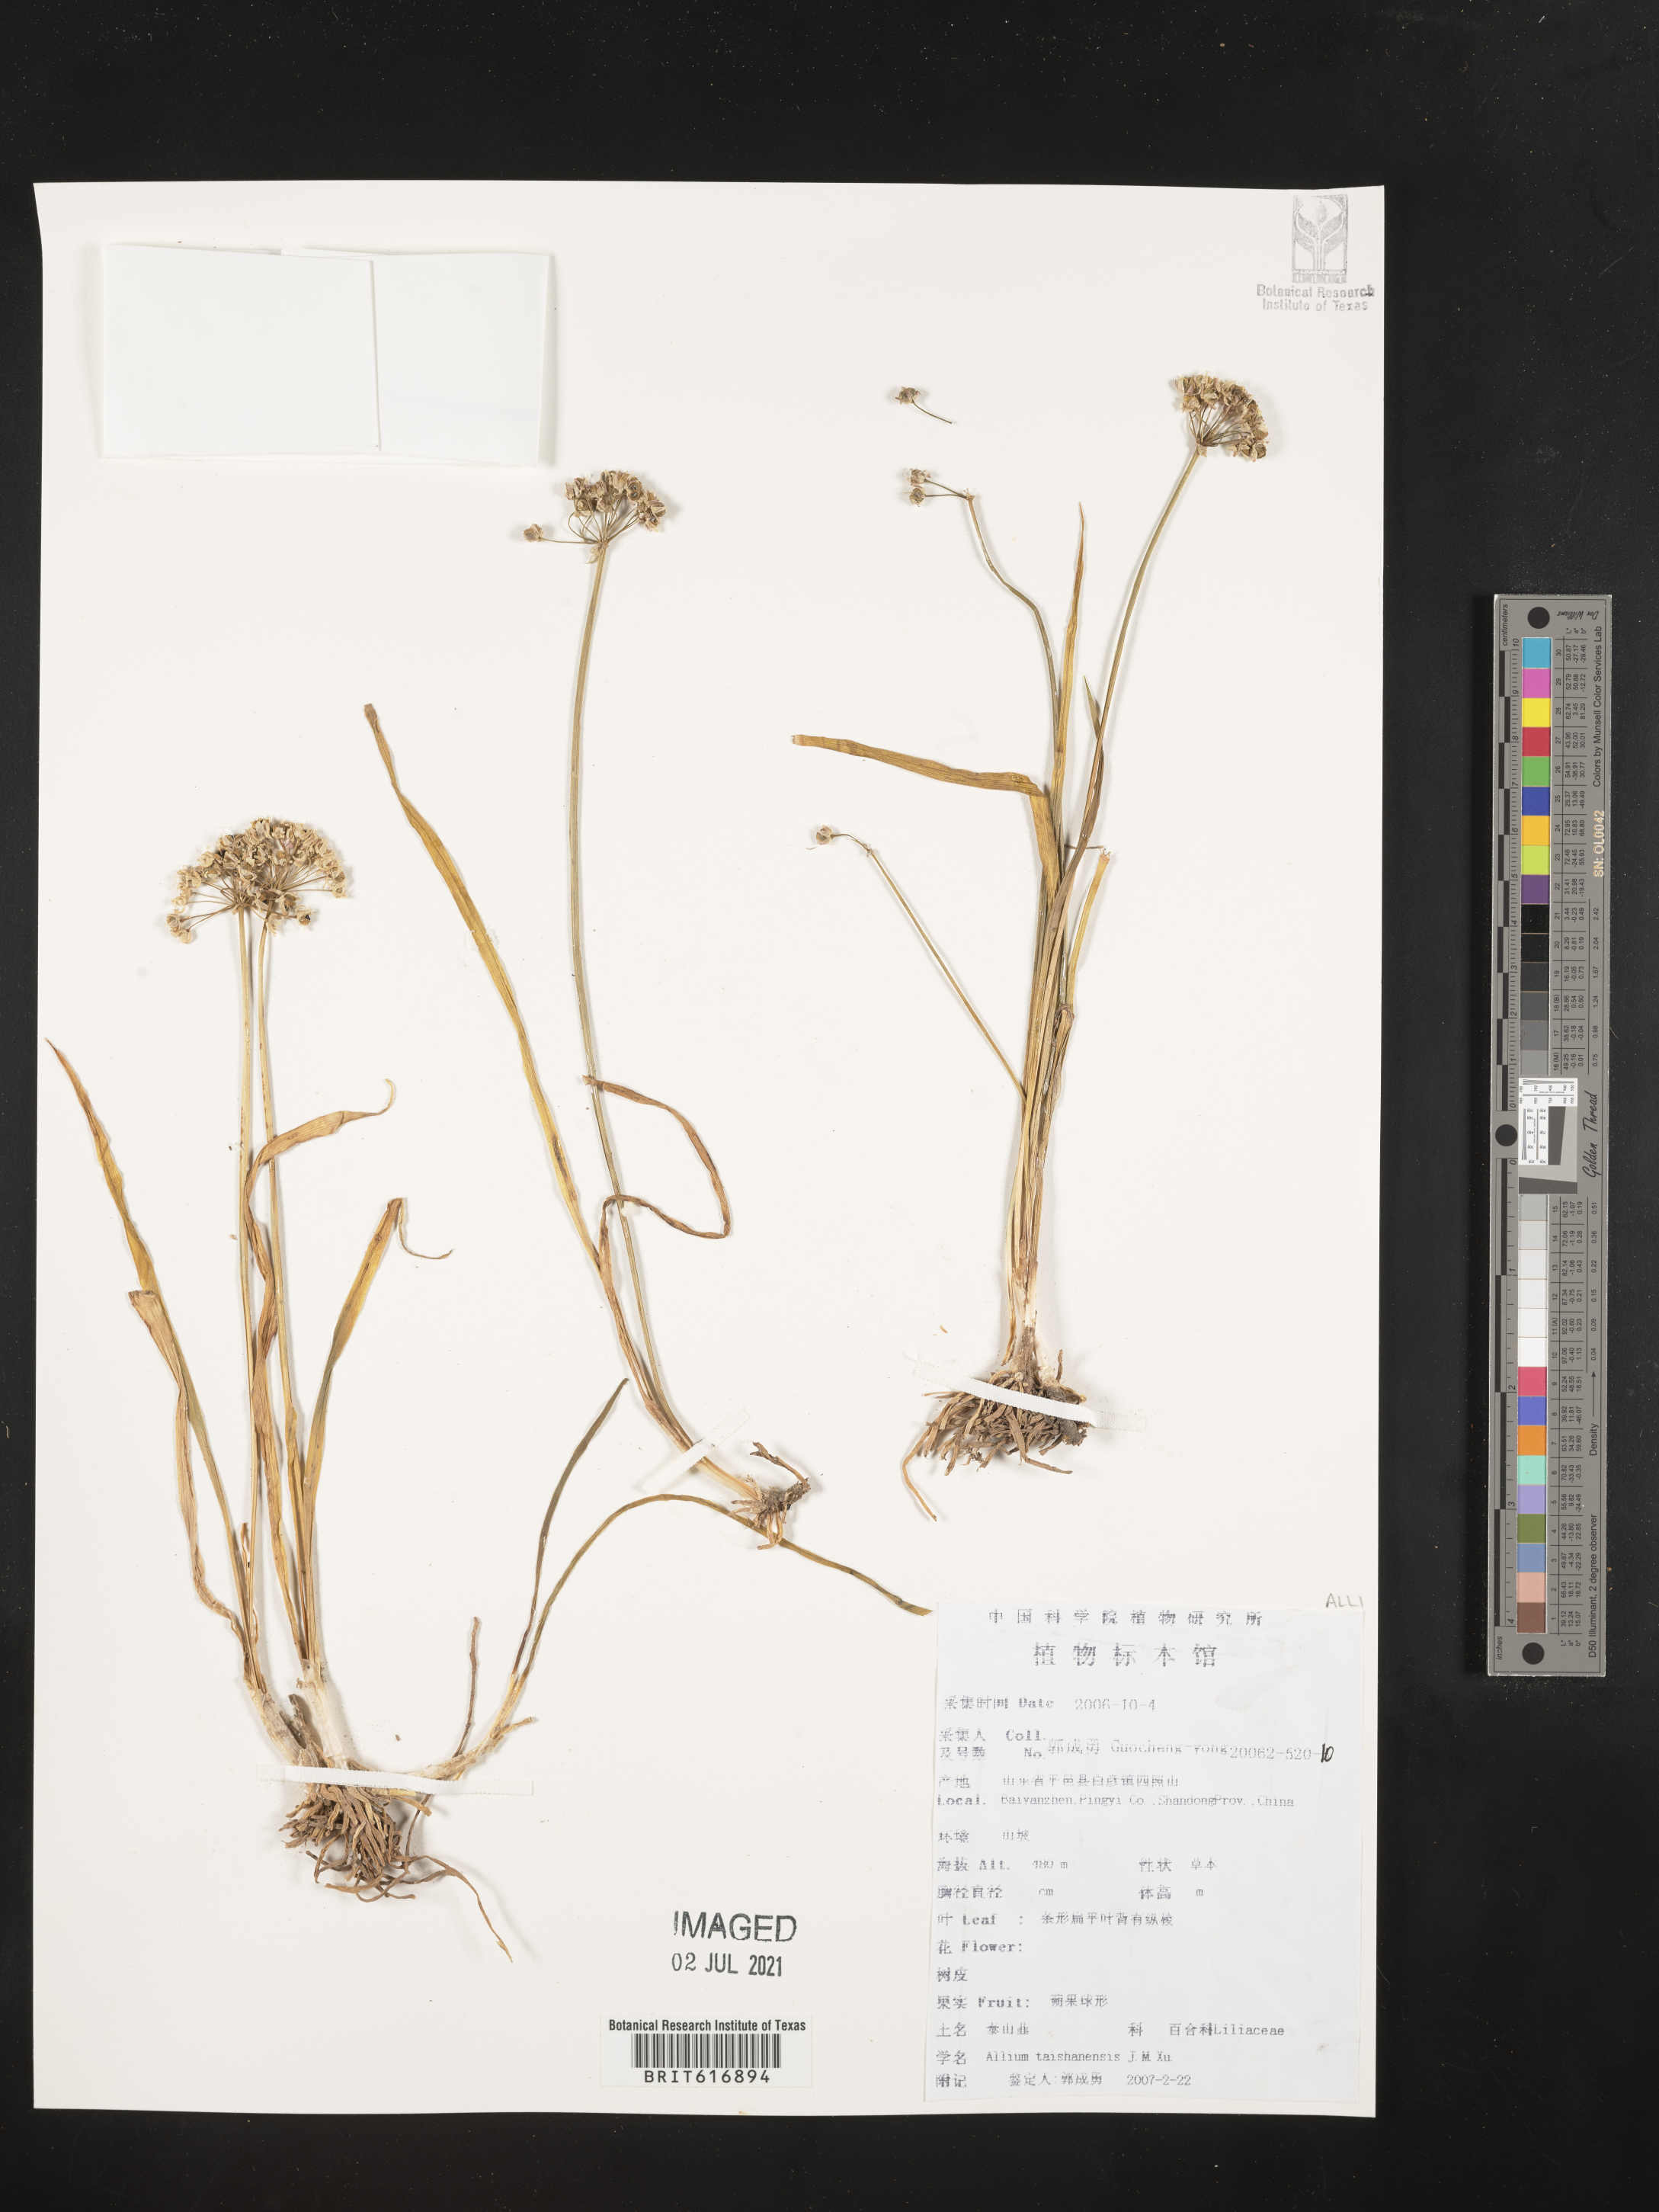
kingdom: Plantae
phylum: Tracheophyta
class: Liliopsida
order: Asparagales
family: Amaryllidaceae
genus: Allium
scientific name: Allium taishanense
